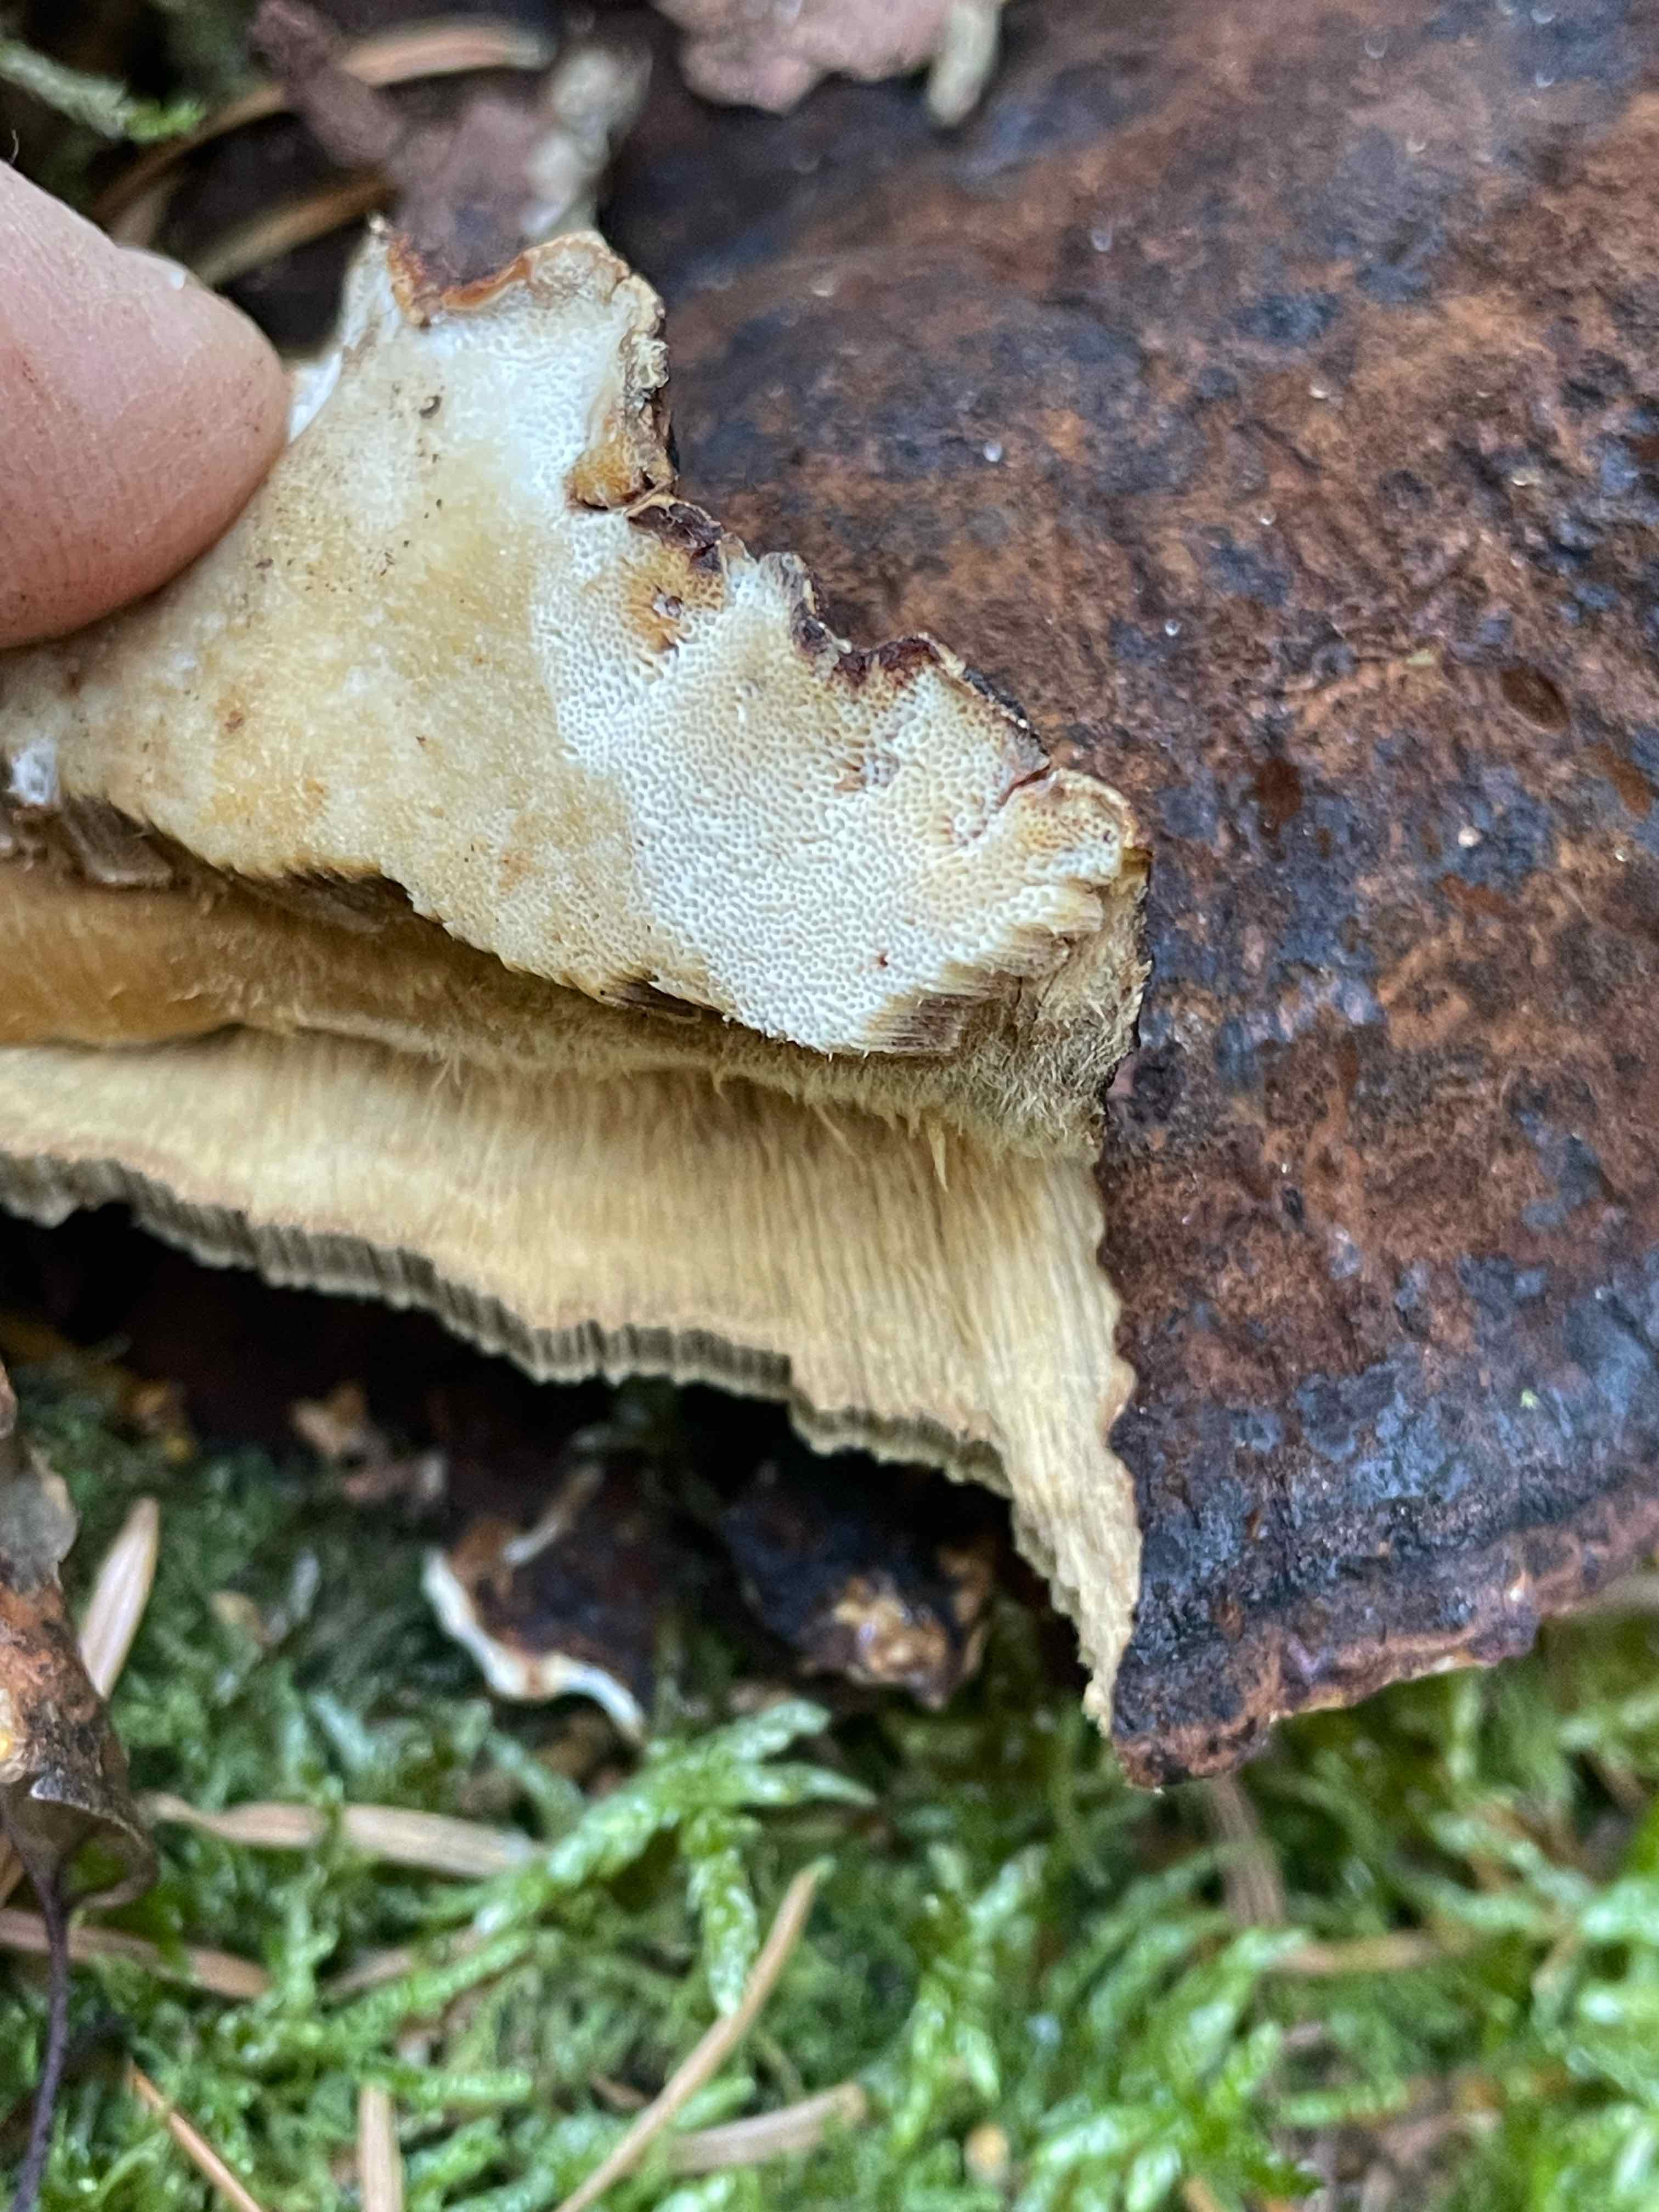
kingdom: Fungi
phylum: Basidiomycota
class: Agaricomycetes
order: Polyporales
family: Ischnodermataceae
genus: Ischnoderma
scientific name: Ischnoderma benzoinum
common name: gran-tjæreporesvamp
